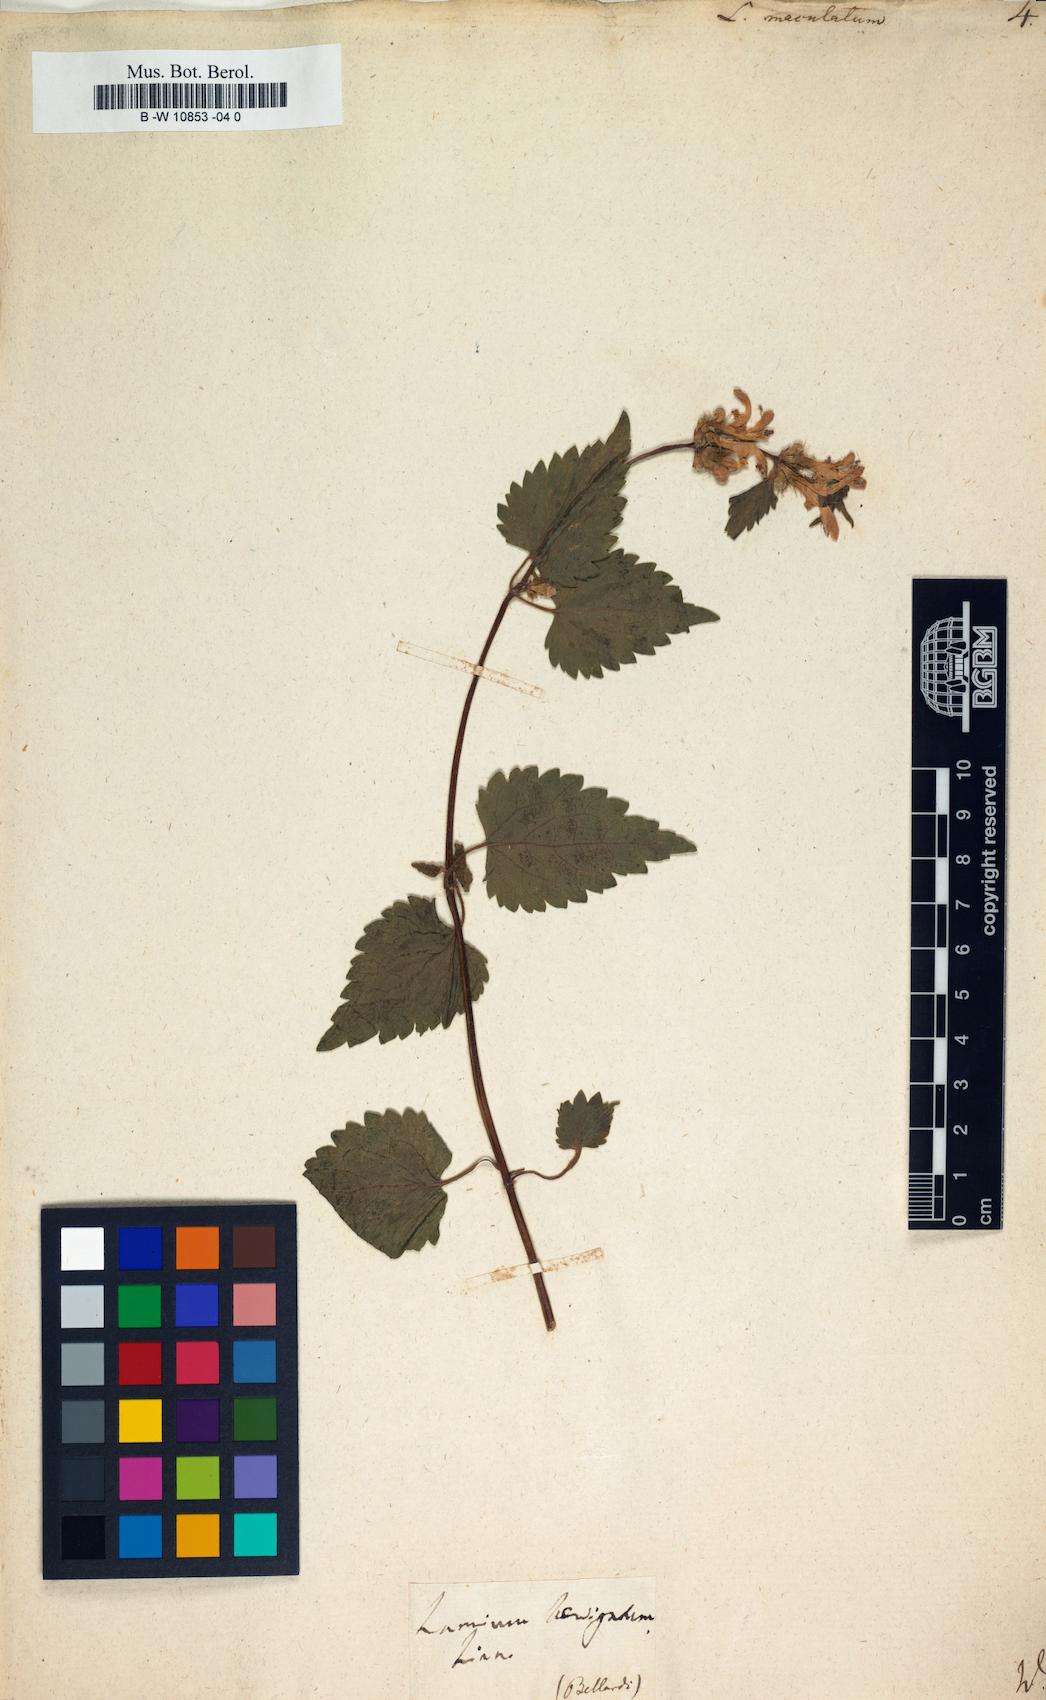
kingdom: Plantae
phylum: Tracheophyta
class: Magnoliopsida
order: Lamiales
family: Lamiaceae
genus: Lamium
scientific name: Lamium maculatum
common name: Spotted dead-nettle
